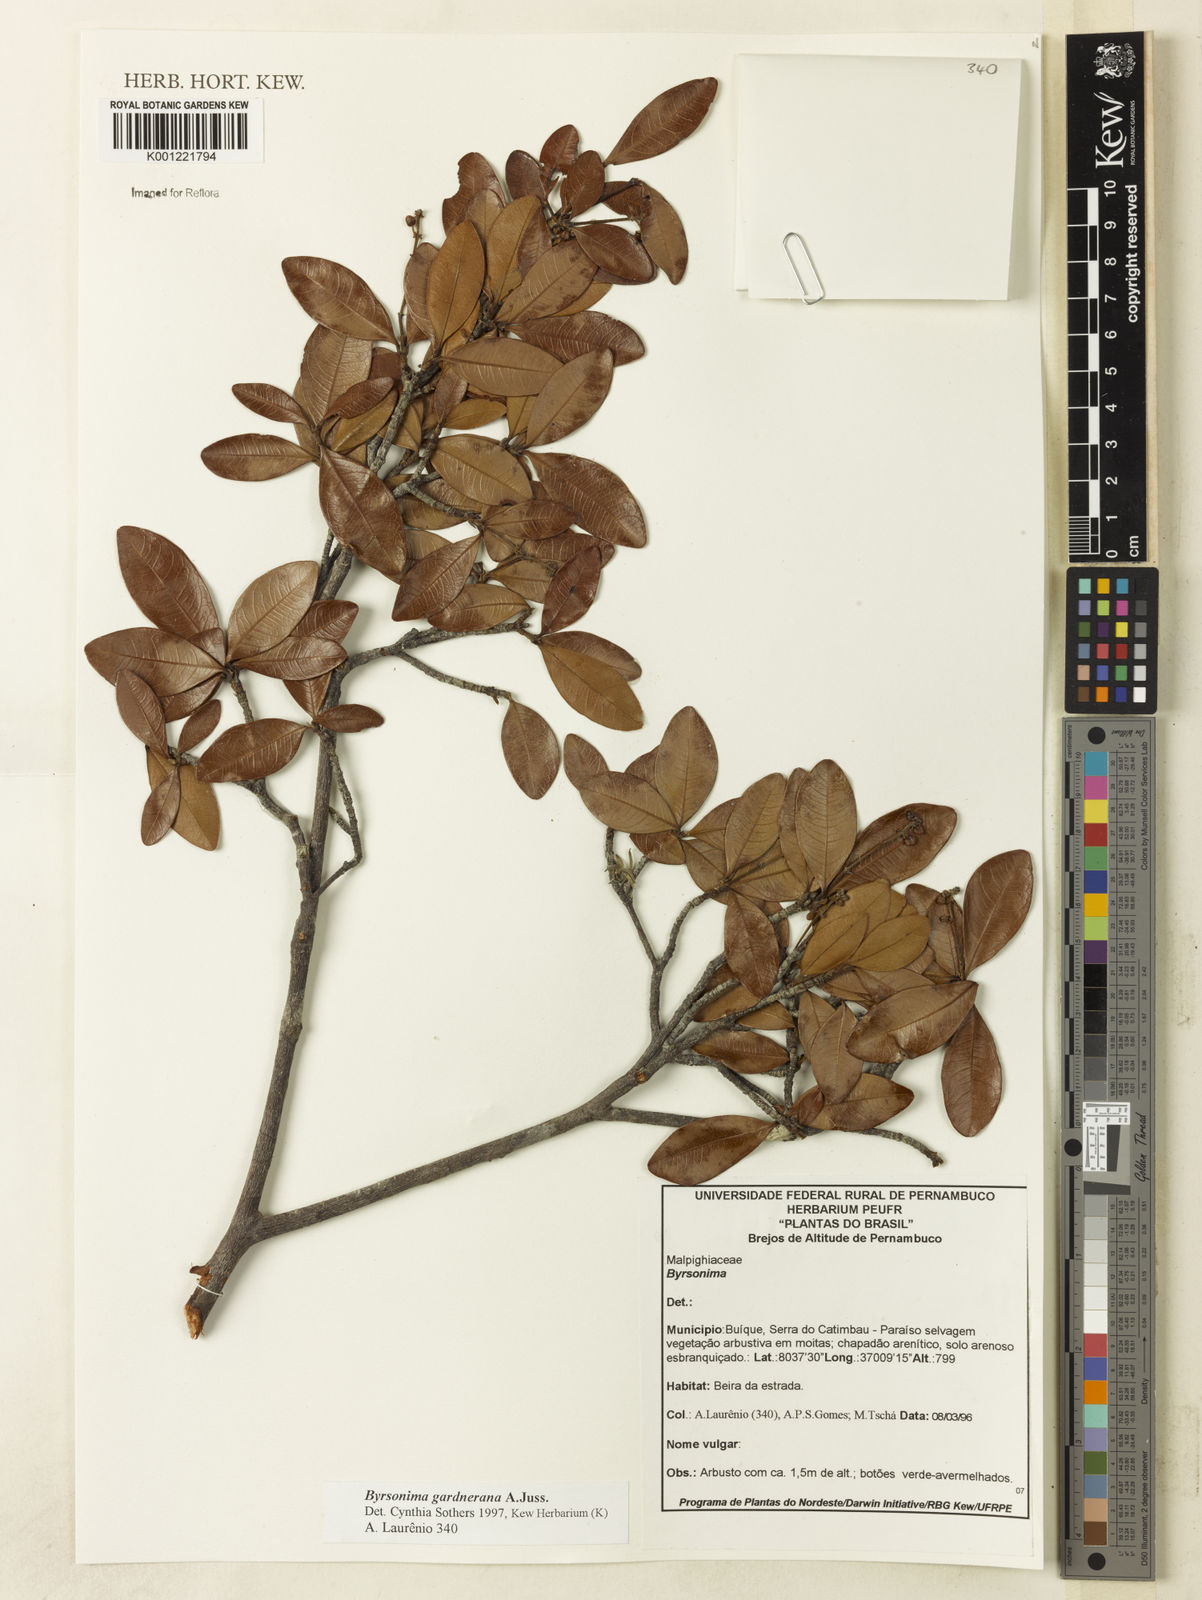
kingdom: Plantae
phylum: Tracheophyta
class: Magnoliopsida
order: Malpighiales
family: Malpighiaceae
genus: Byrsonima
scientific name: Byrsonima gardneriana
